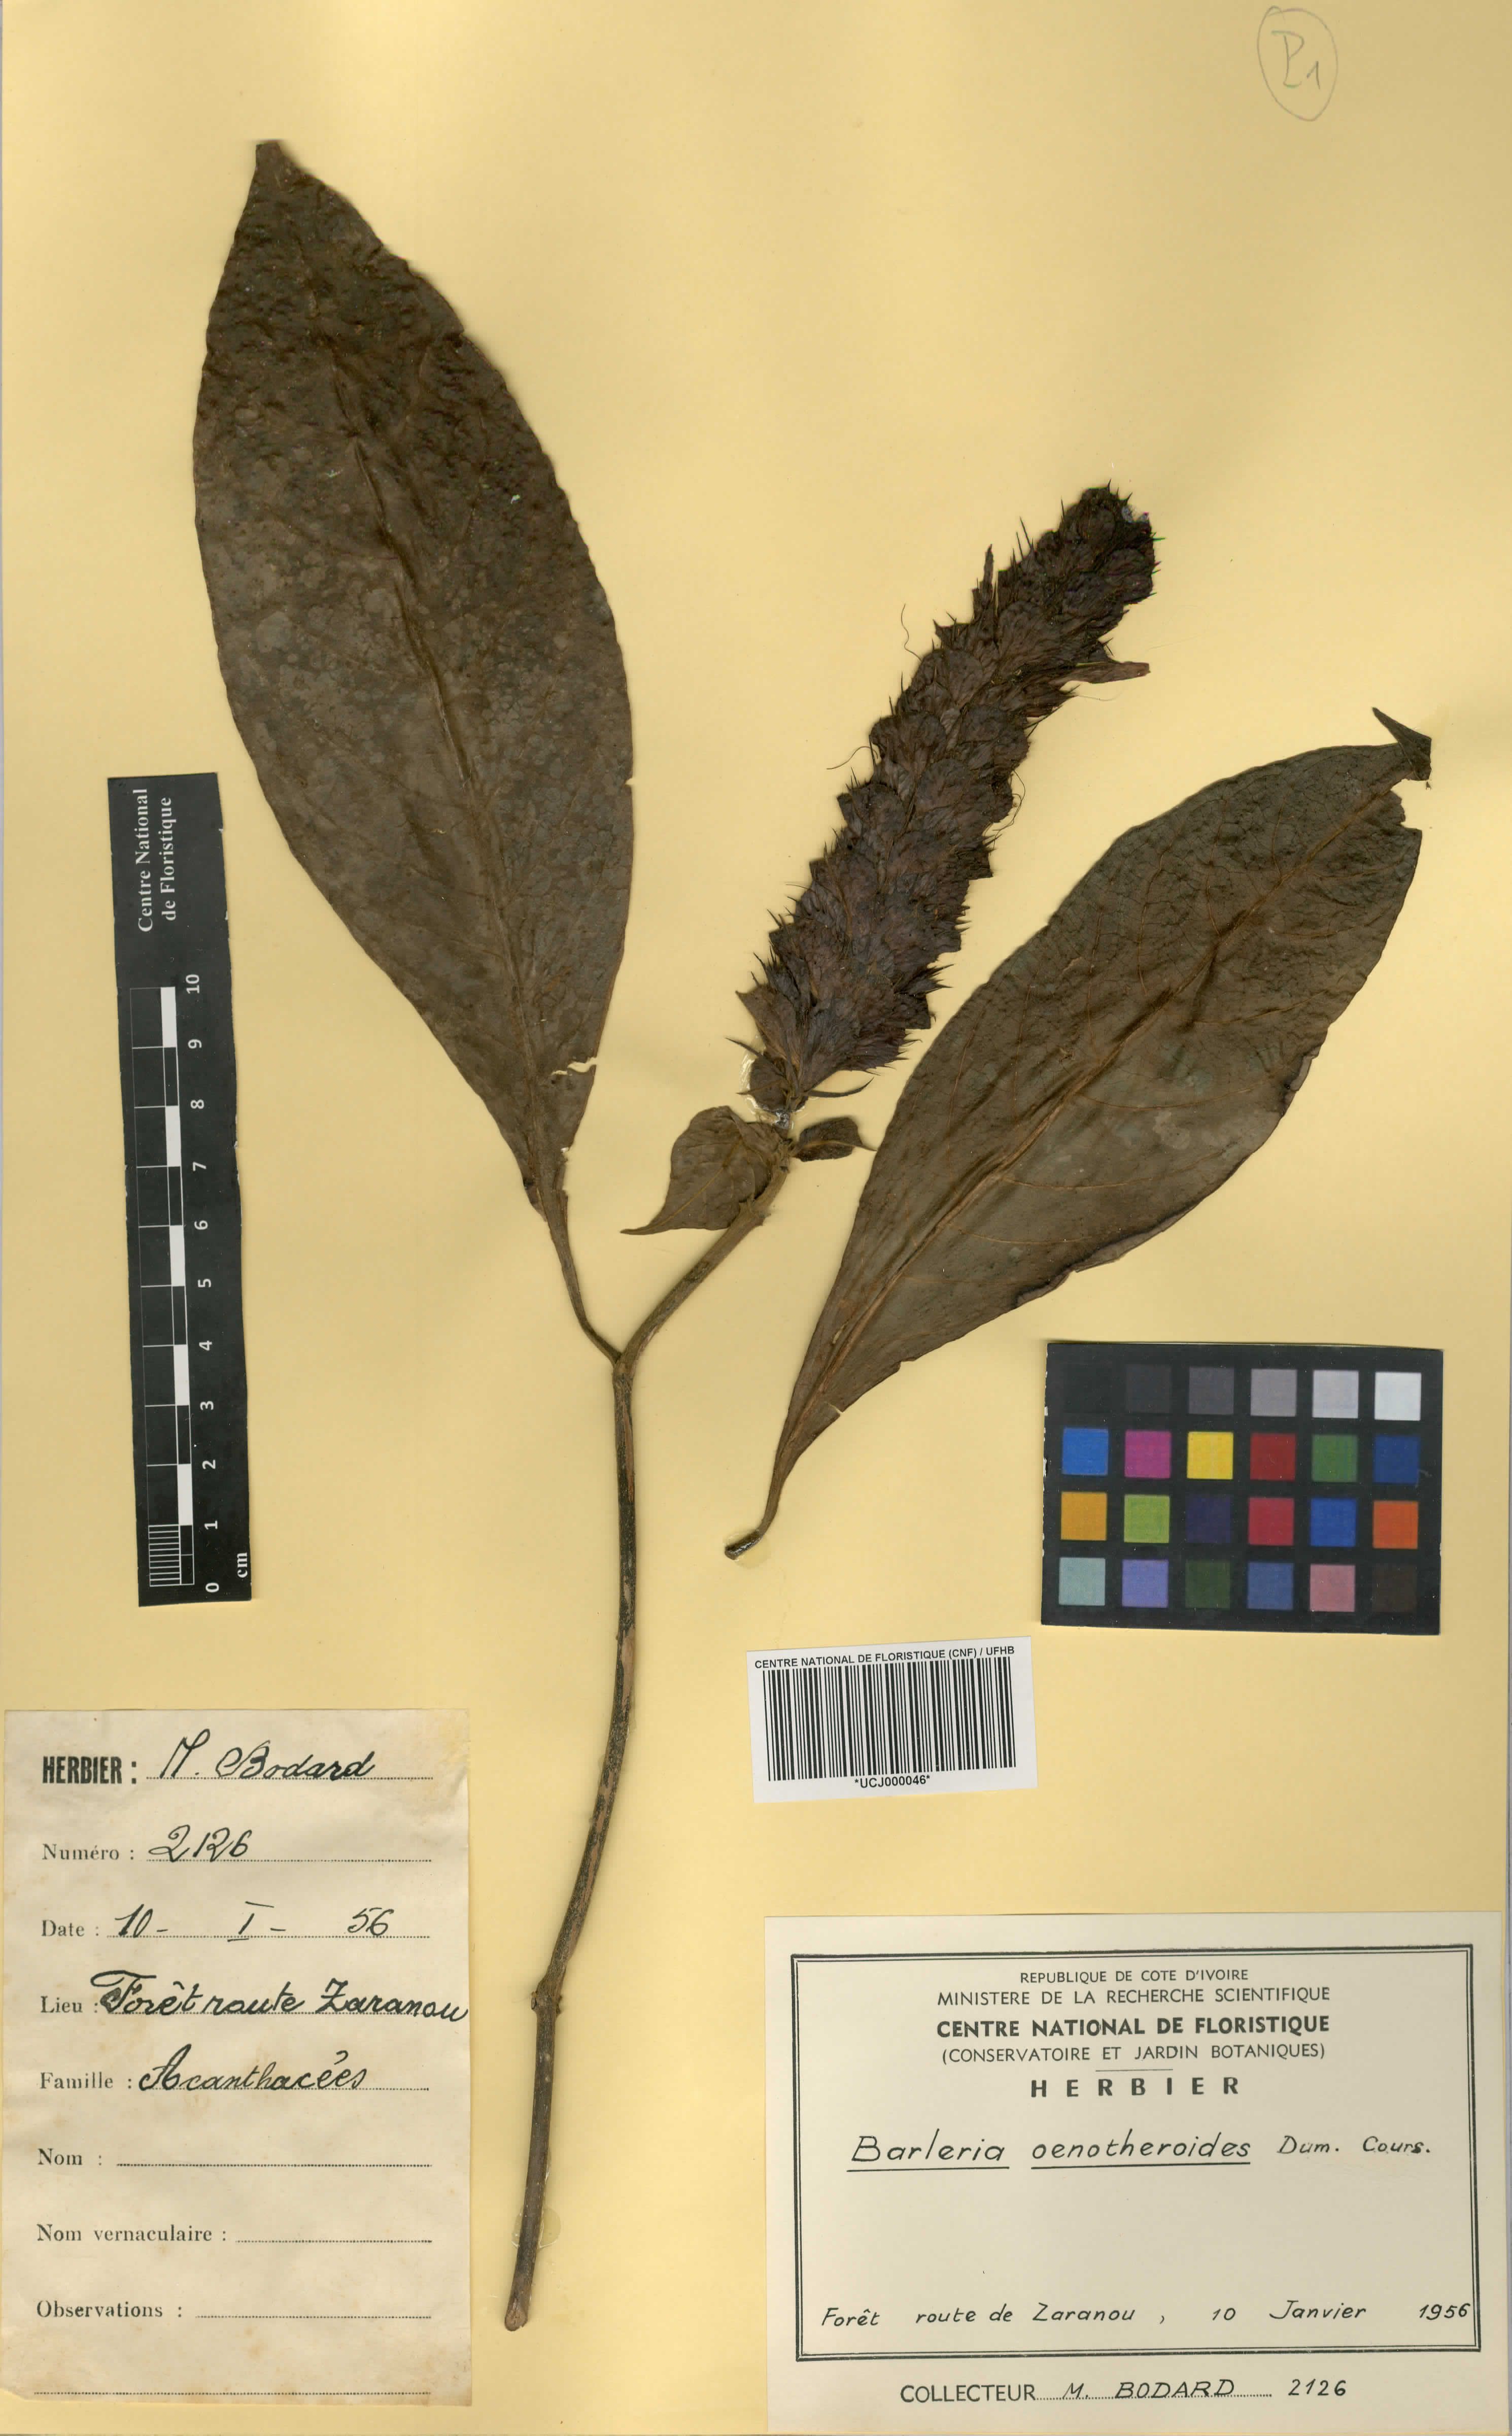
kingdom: Plantae
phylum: Tracheophyta
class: Magnoliopsida
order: Lamiales
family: Acanthaceae
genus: Barleria
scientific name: Barleria oenotheroides
